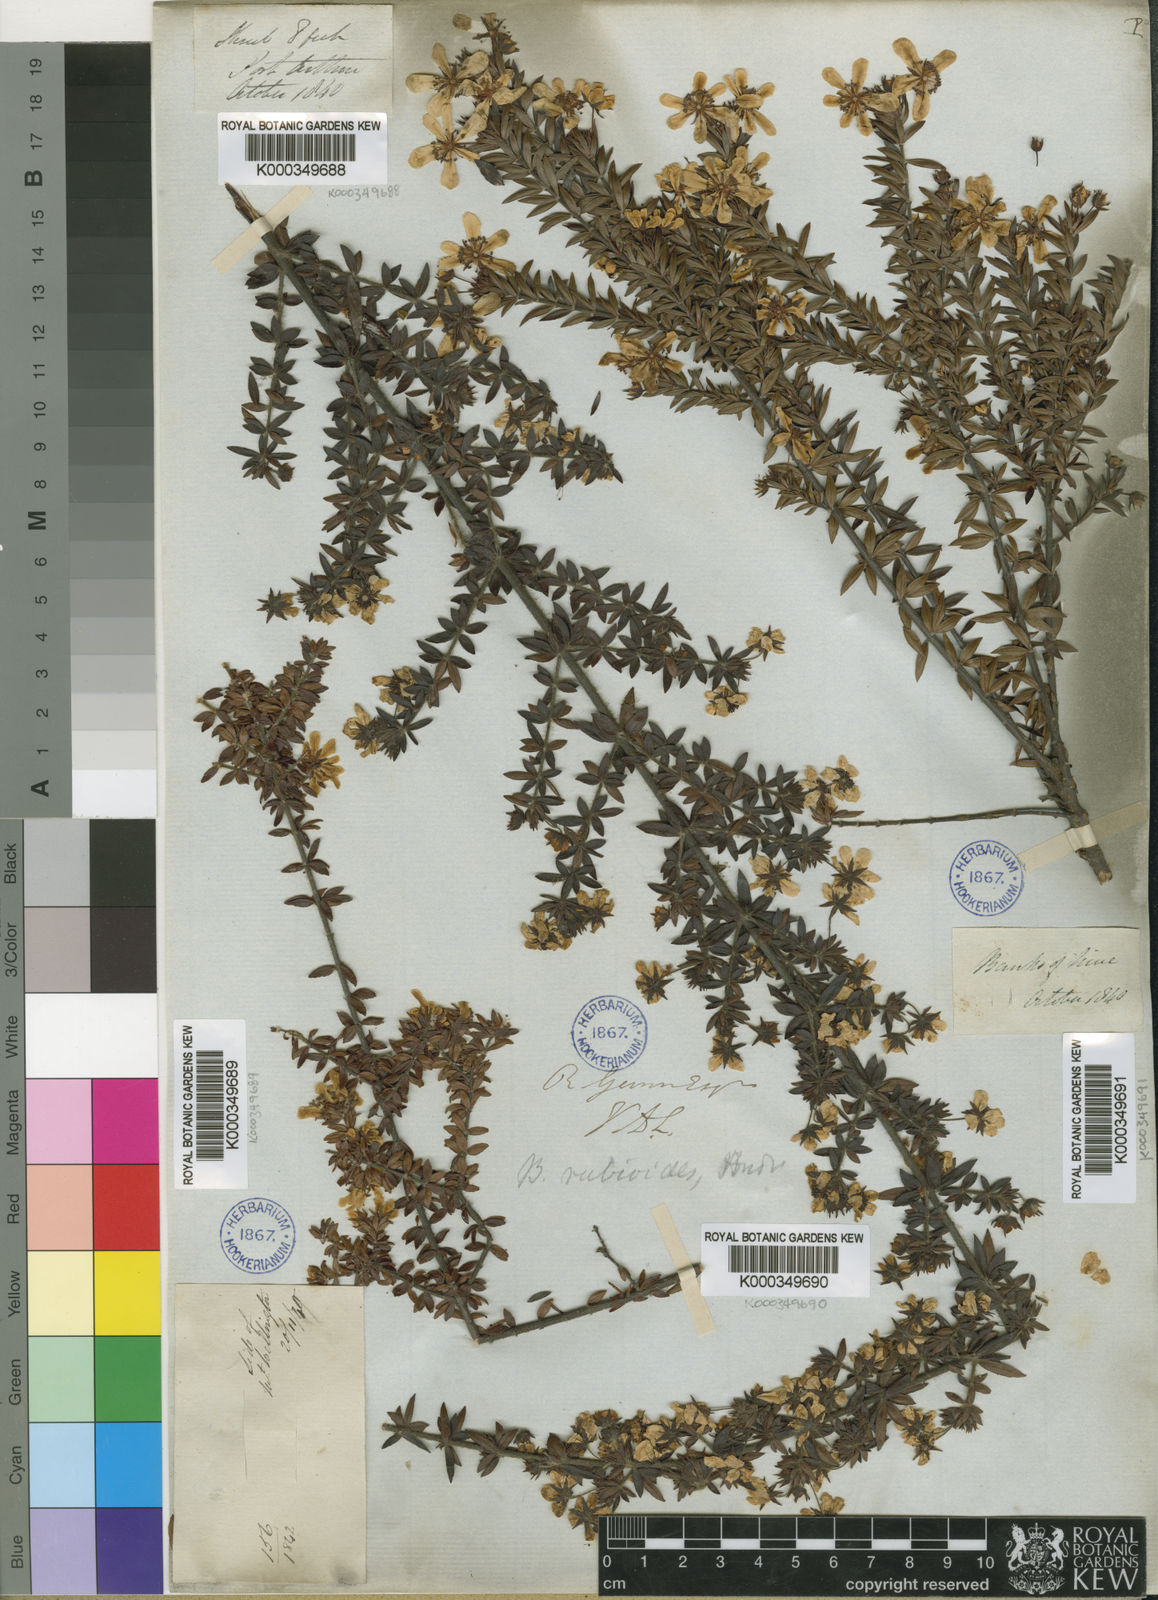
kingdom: Plantae
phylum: Tracheophyta
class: Magnoliopsida
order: Oxalidales
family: Cunoniaceae
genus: Bauera
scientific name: Bauera rubioides
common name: River-rose
